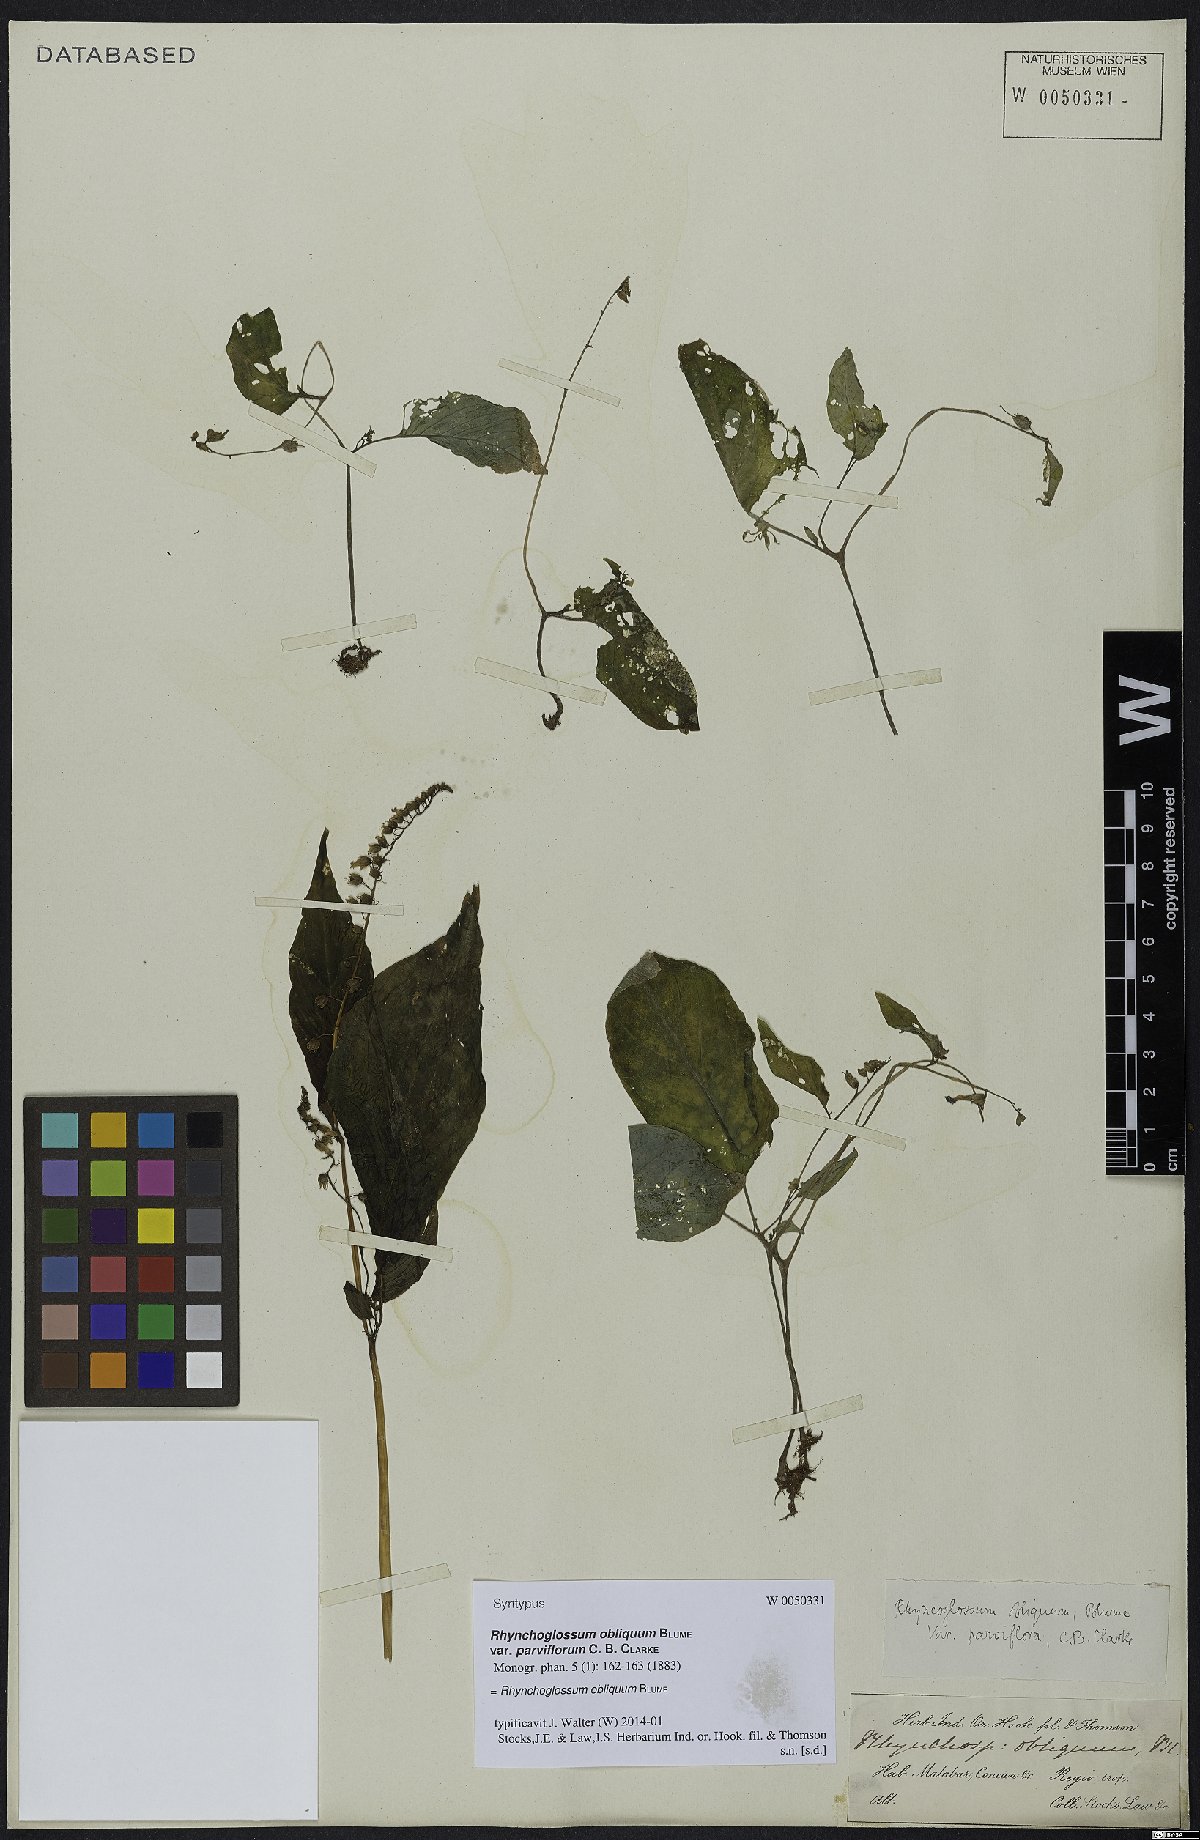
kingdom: Plantae
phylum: Tracheophyta
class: Magnoliopsida
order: Lamiales
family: Gesneriaceae
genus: Rhynchoglossum
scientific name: Rhynchoglossum obliquum
